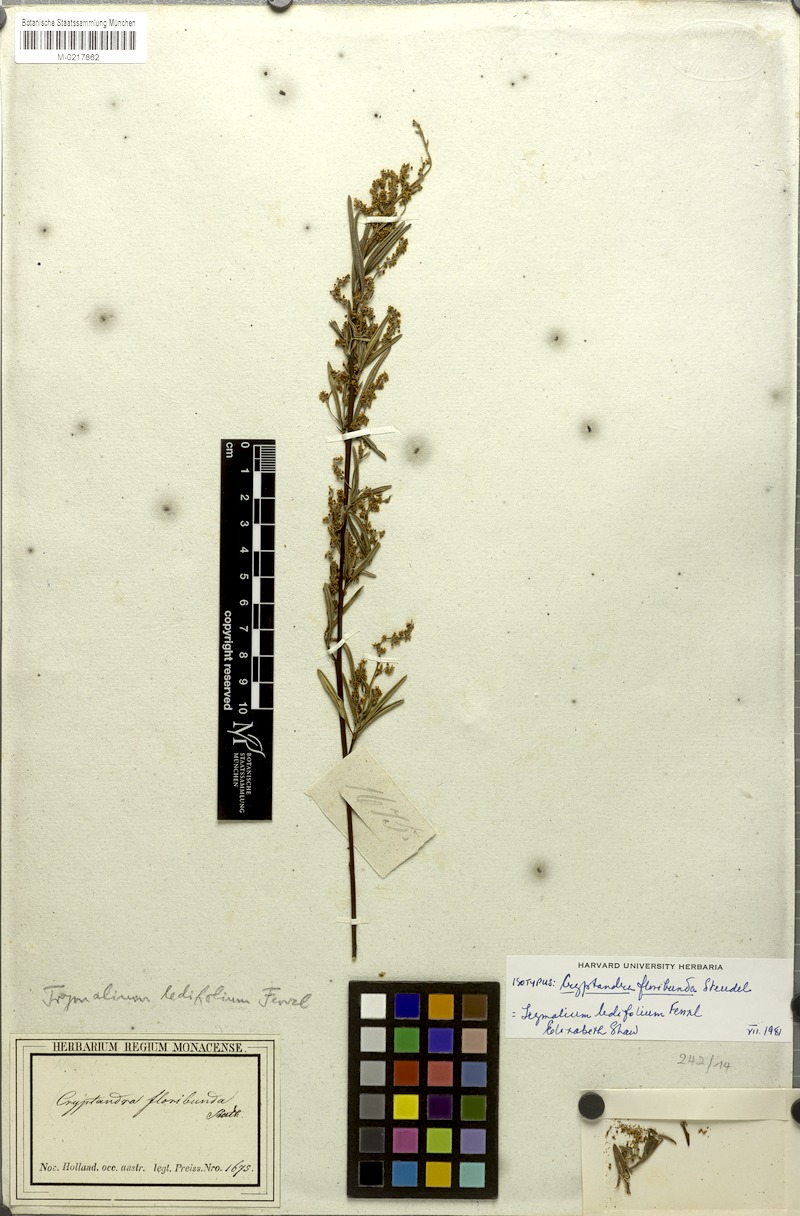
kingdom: Plantae
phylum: Tracheophyta
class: Magnoliopsida
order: Rosales
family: Rhamnaceae
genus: Trymalium
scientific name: Trymalium ledifolium
